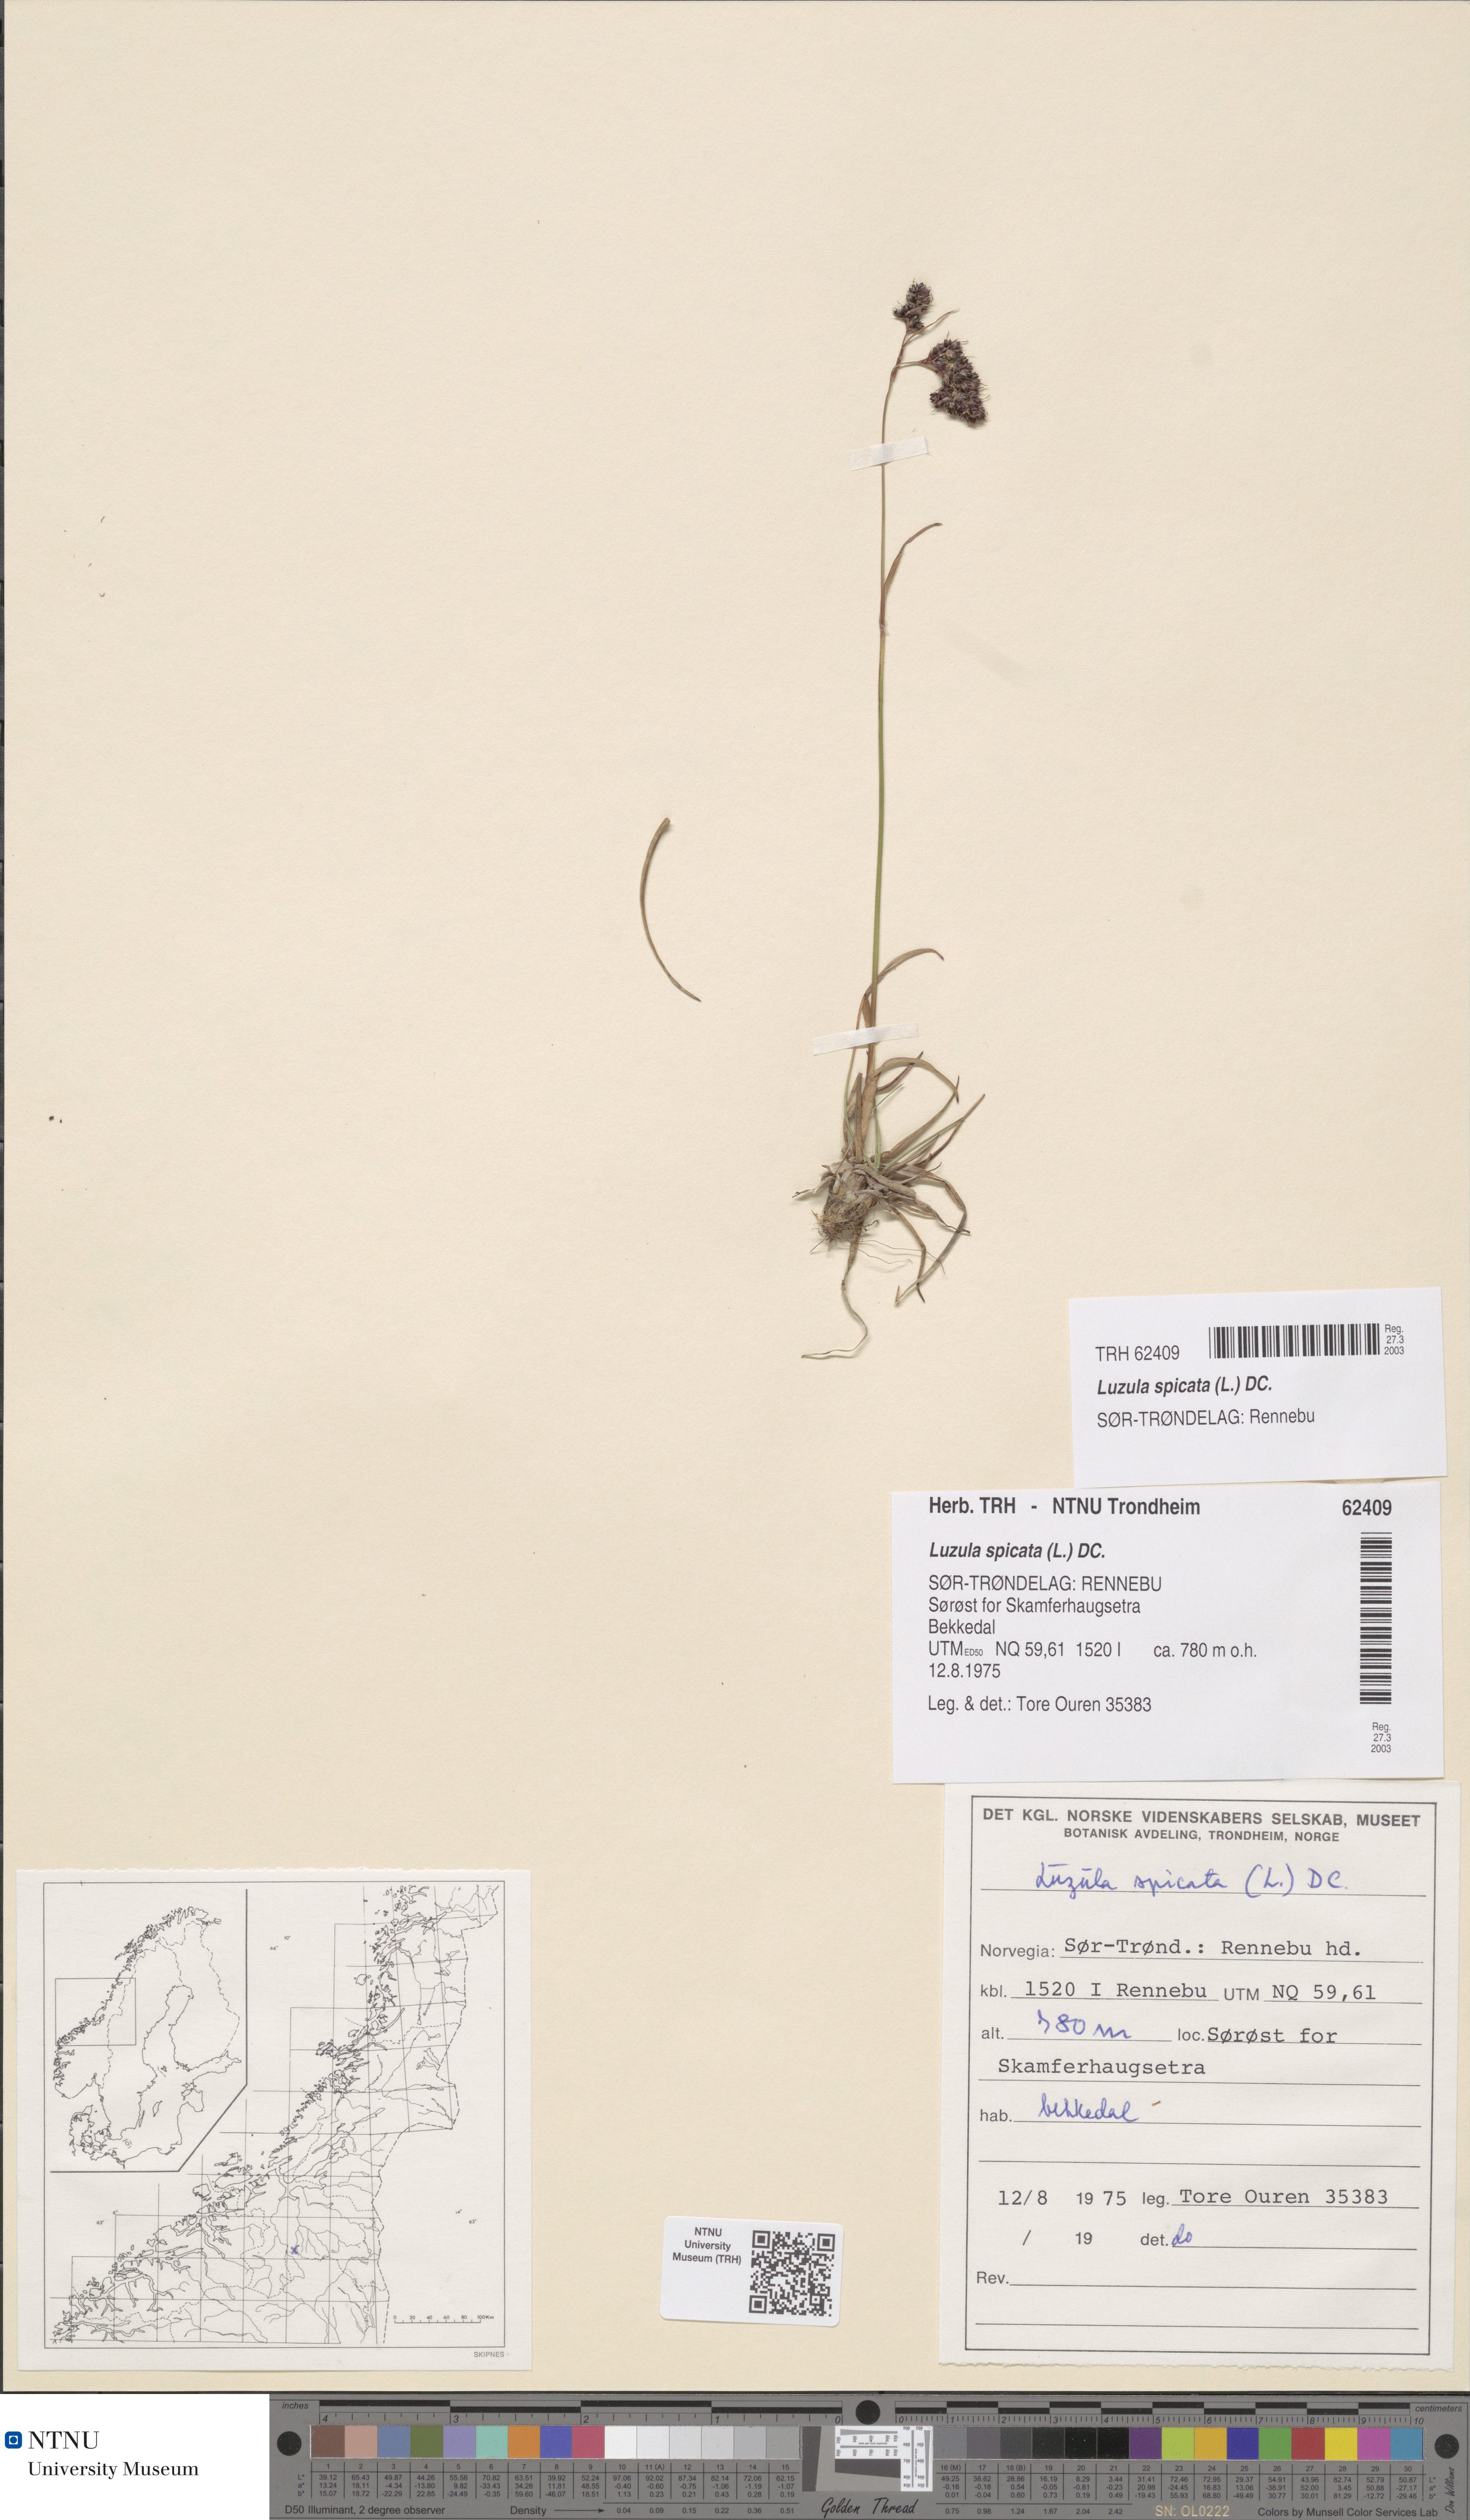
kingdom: Plantae
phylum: Tracheophyta
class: Liliopsida
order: Poales
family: Juncaceae
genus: Luzula
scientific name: Luzula spicata
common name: Spiked wood-rush
